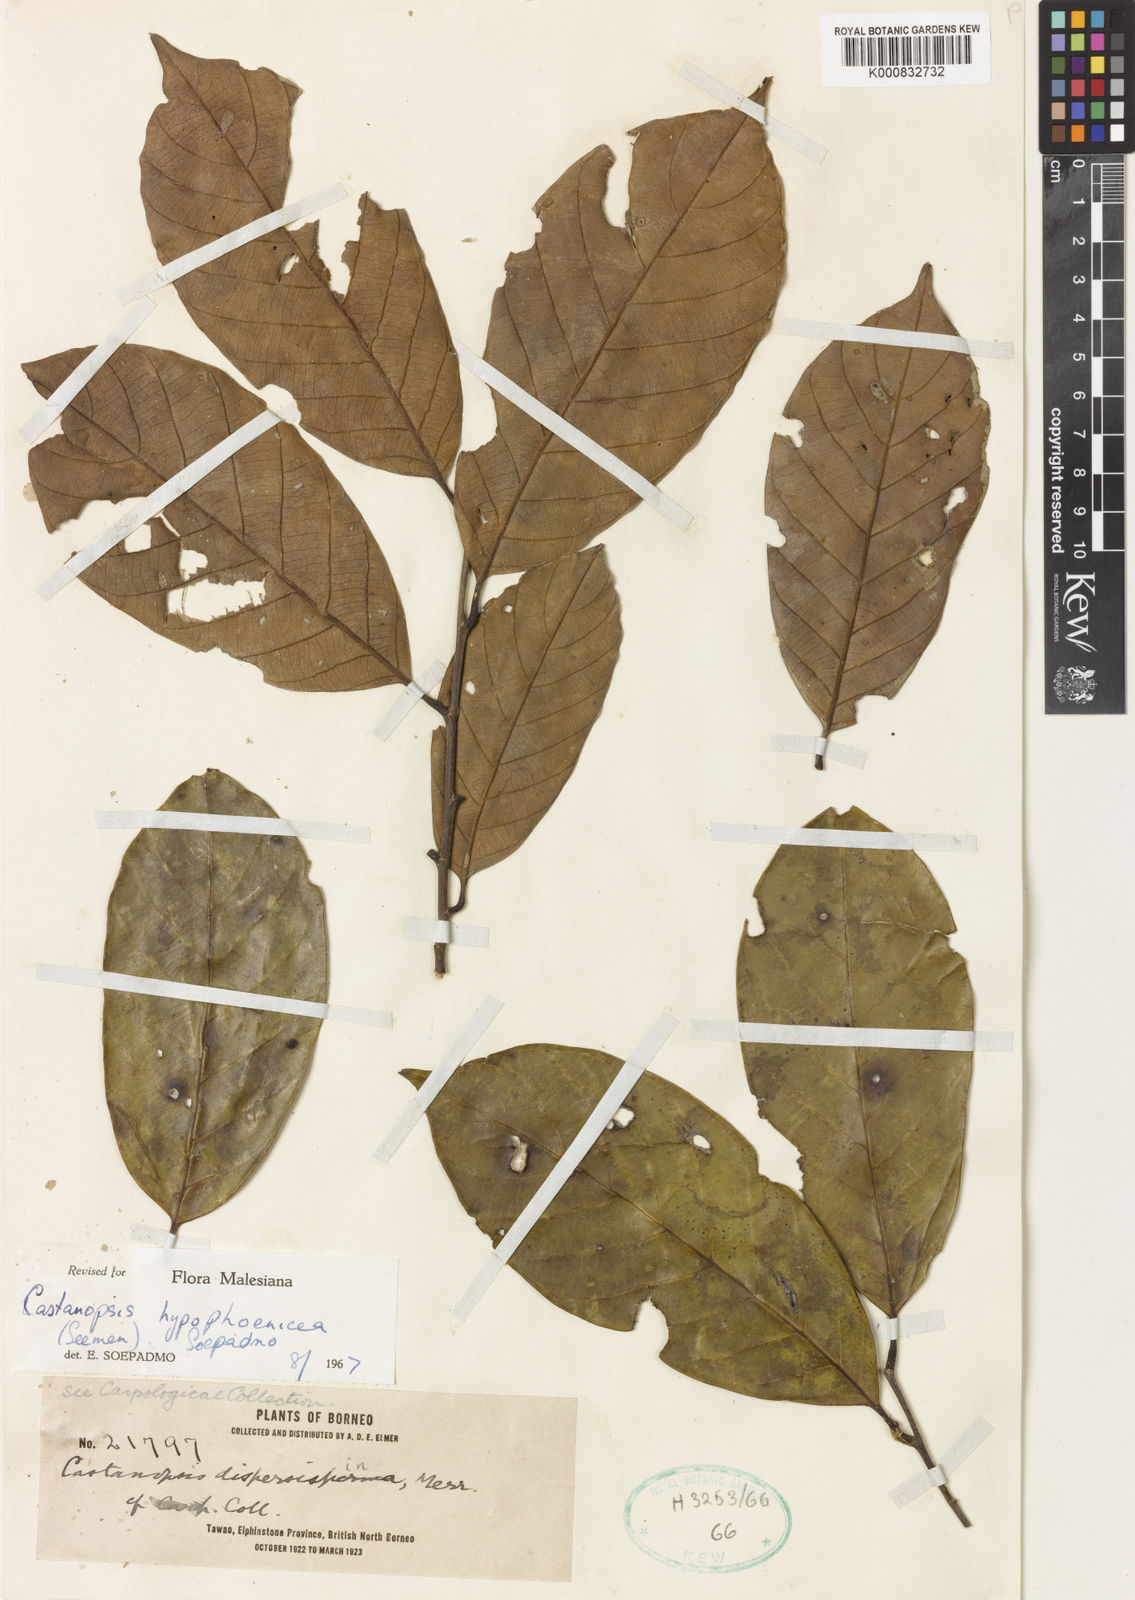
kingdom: Plantae
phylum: Tracheophyta
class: Magnoliopsida
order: Fagales
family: Fagaceae
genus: Castanopsis
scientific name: Castanopsis hypophoenicea
